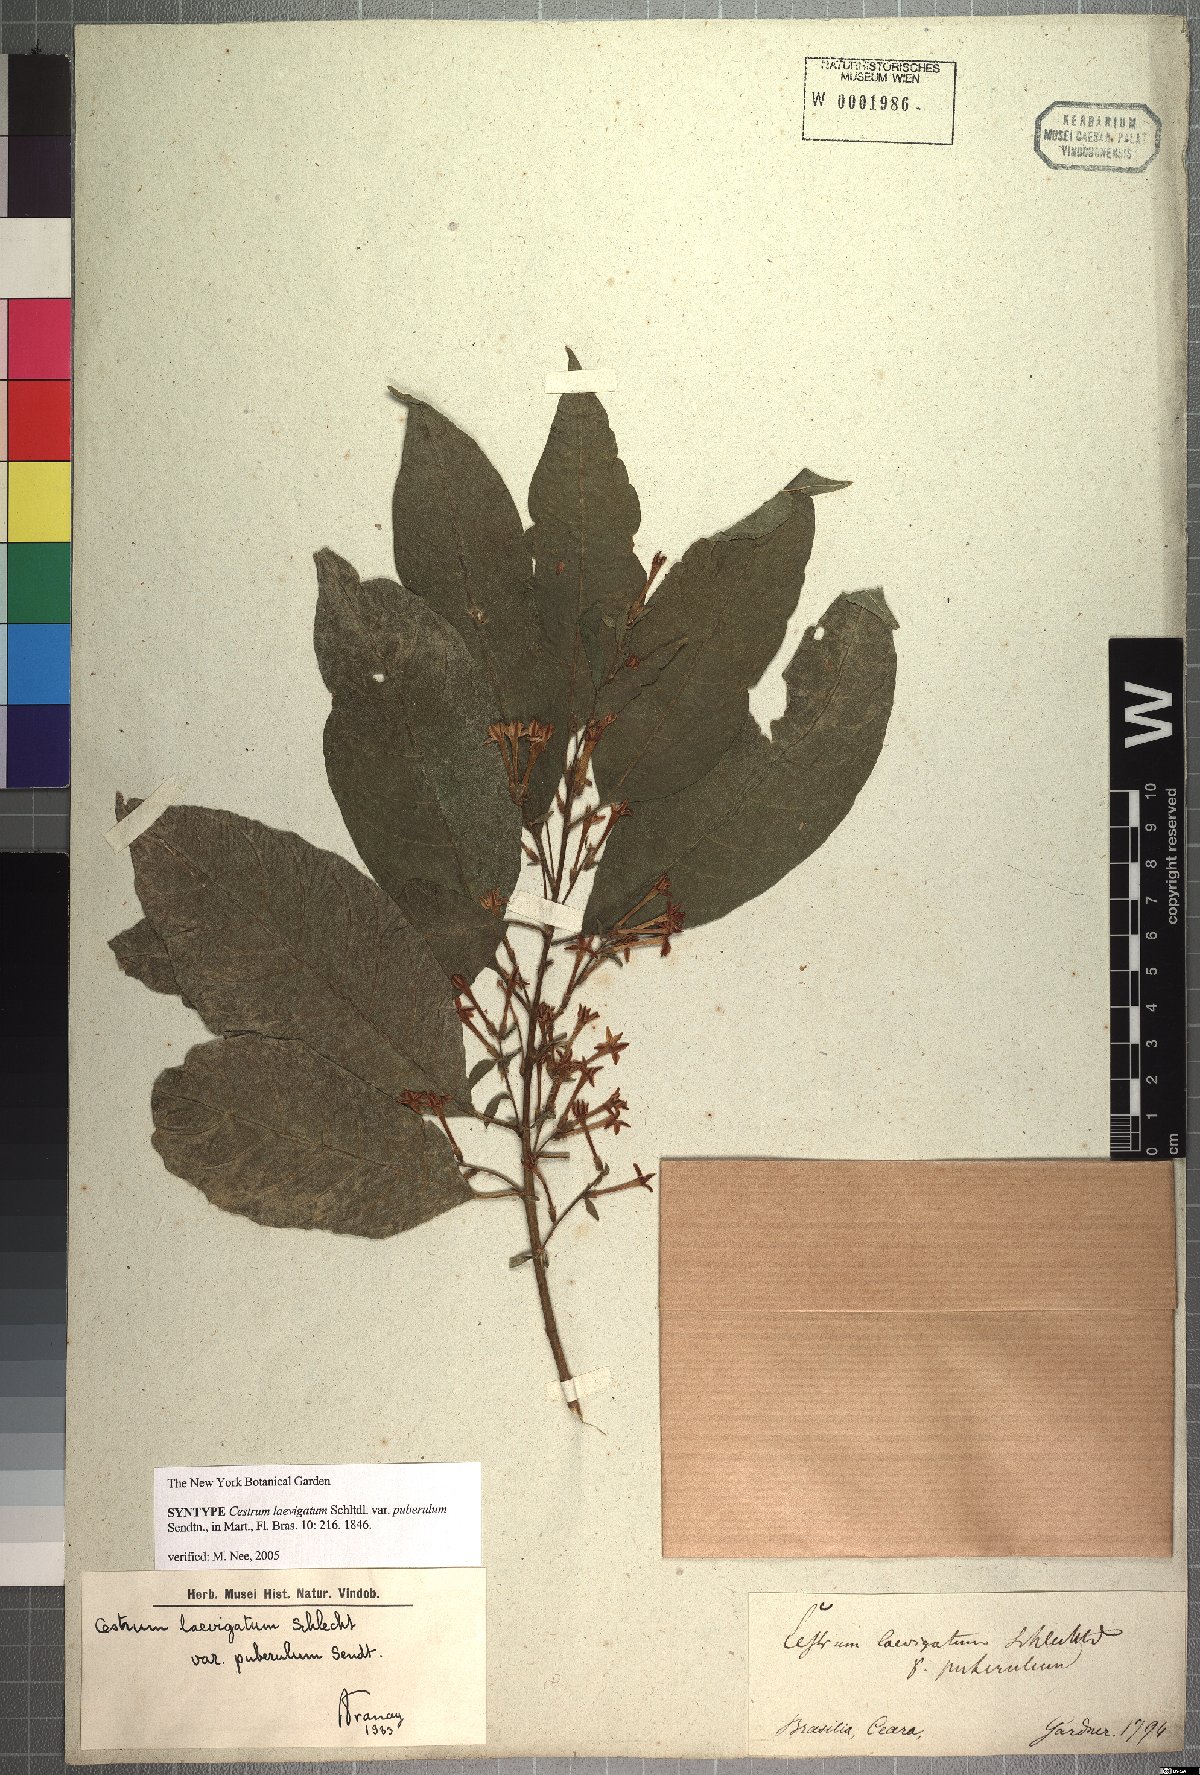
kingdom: Plantae
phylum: Tracheophyta
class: Magnoliopsida
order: Solanales
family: Solanaceae
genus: Cestrum
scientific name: Cestrum laevigatum
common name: Inkberry
